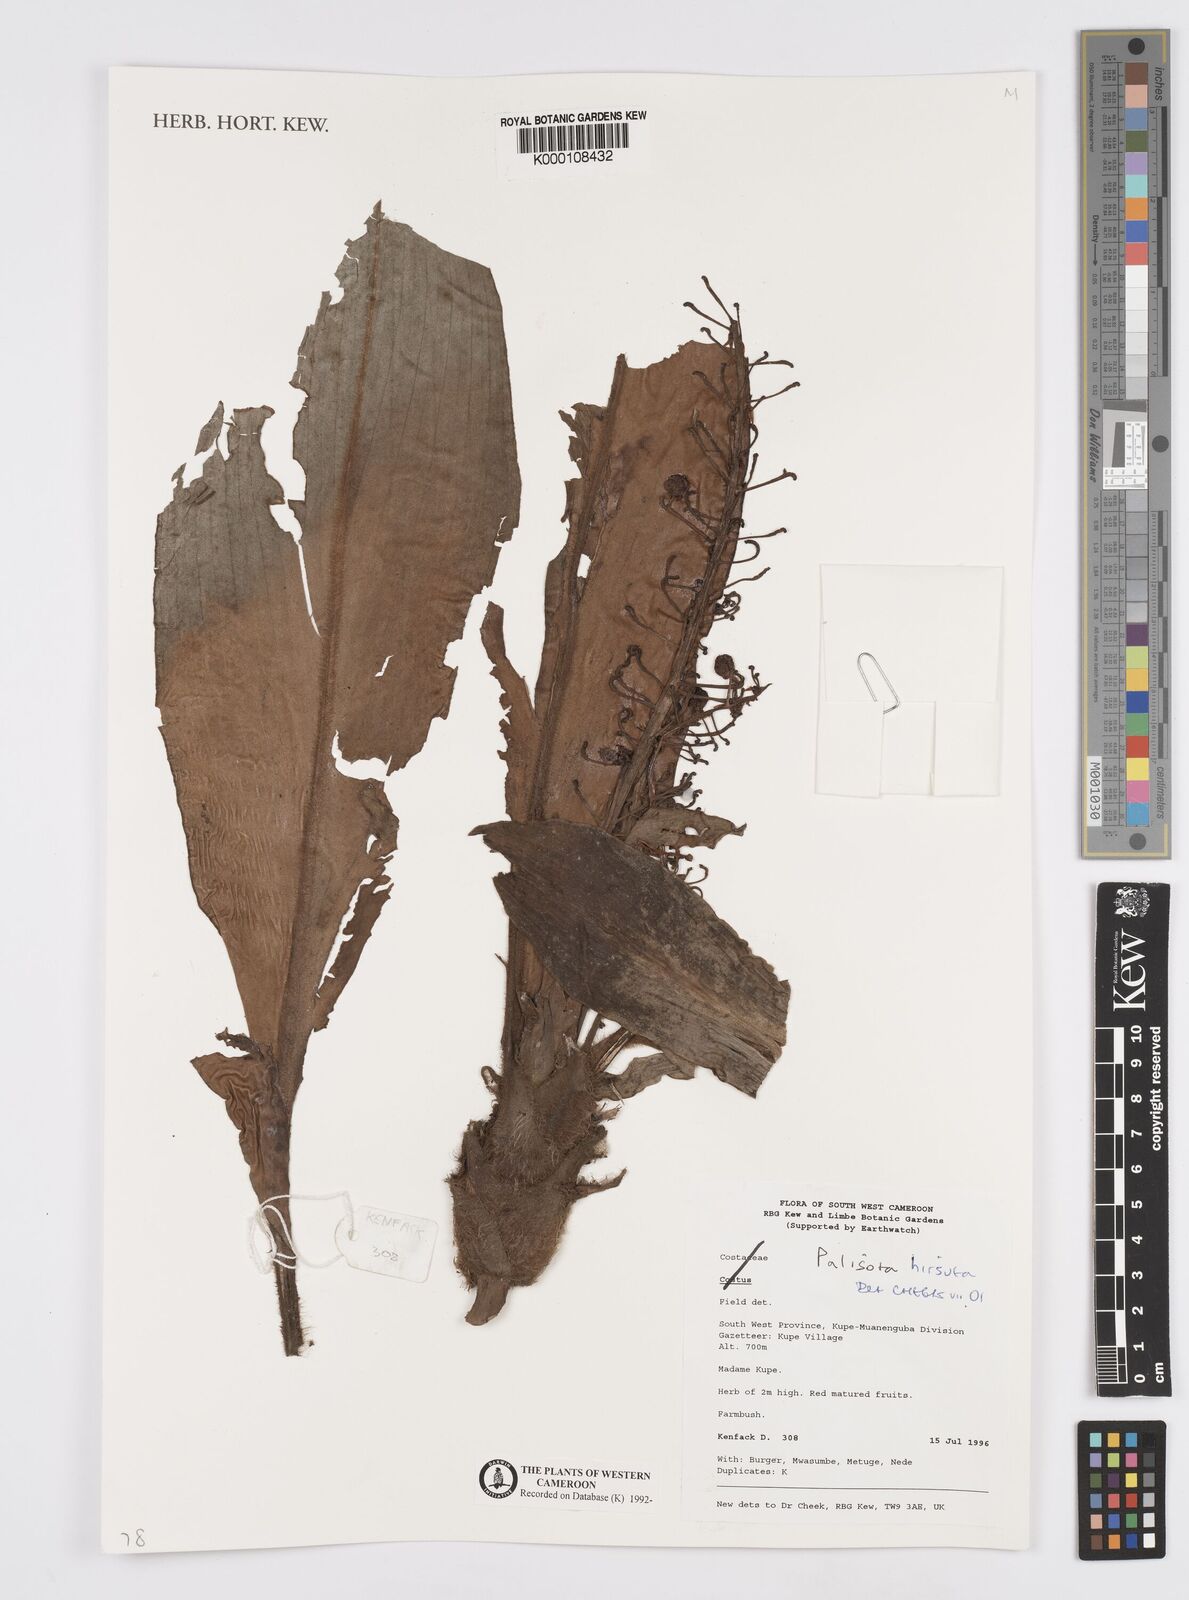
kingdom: Plantae
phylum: Tracheophyta
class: Liliopsida
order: Commelinales
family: Commelinaceae
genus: Palisota
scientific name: Palisota hirsuta
